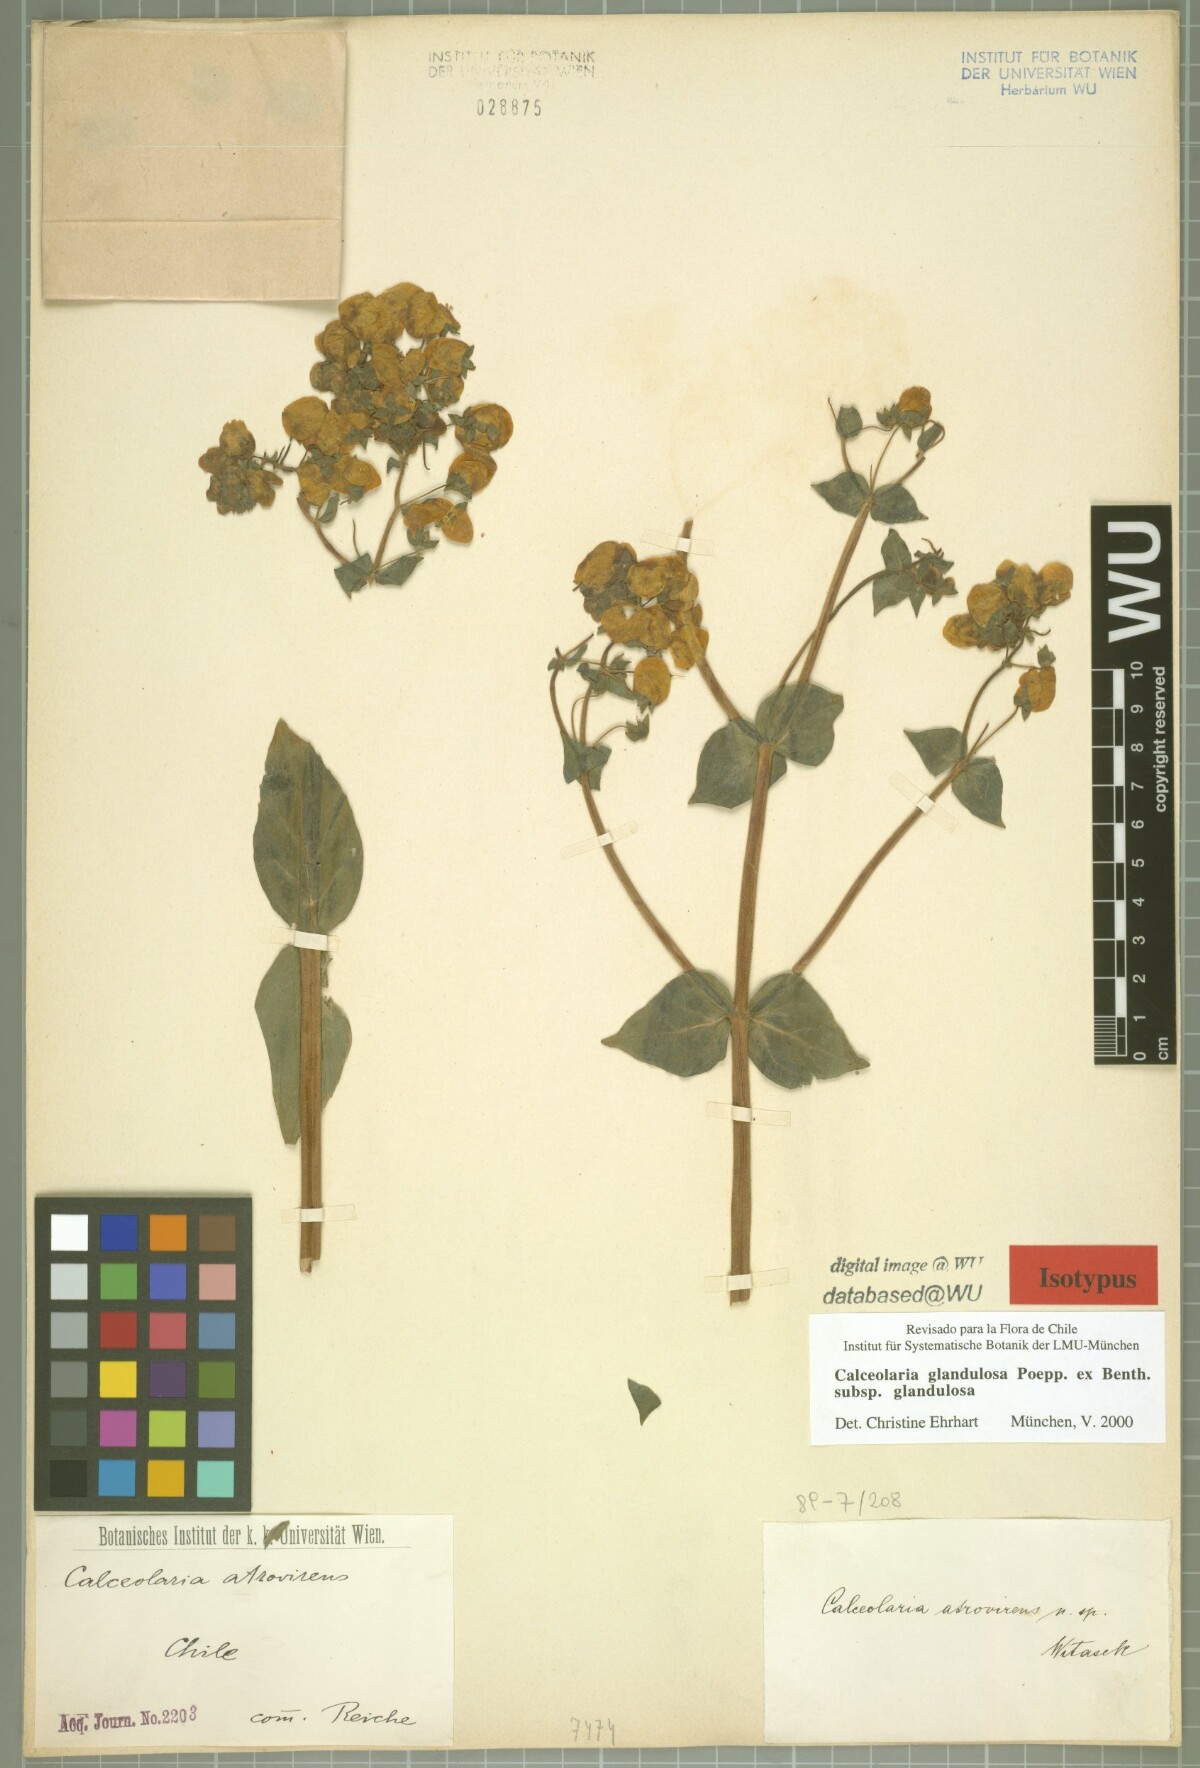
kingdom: Plantae
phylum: Tracheophyta
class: Magnoliopsida
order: Lamiales
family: Calceolariaceae
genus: Calceolaria
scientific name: Calceolaria glandulosa
